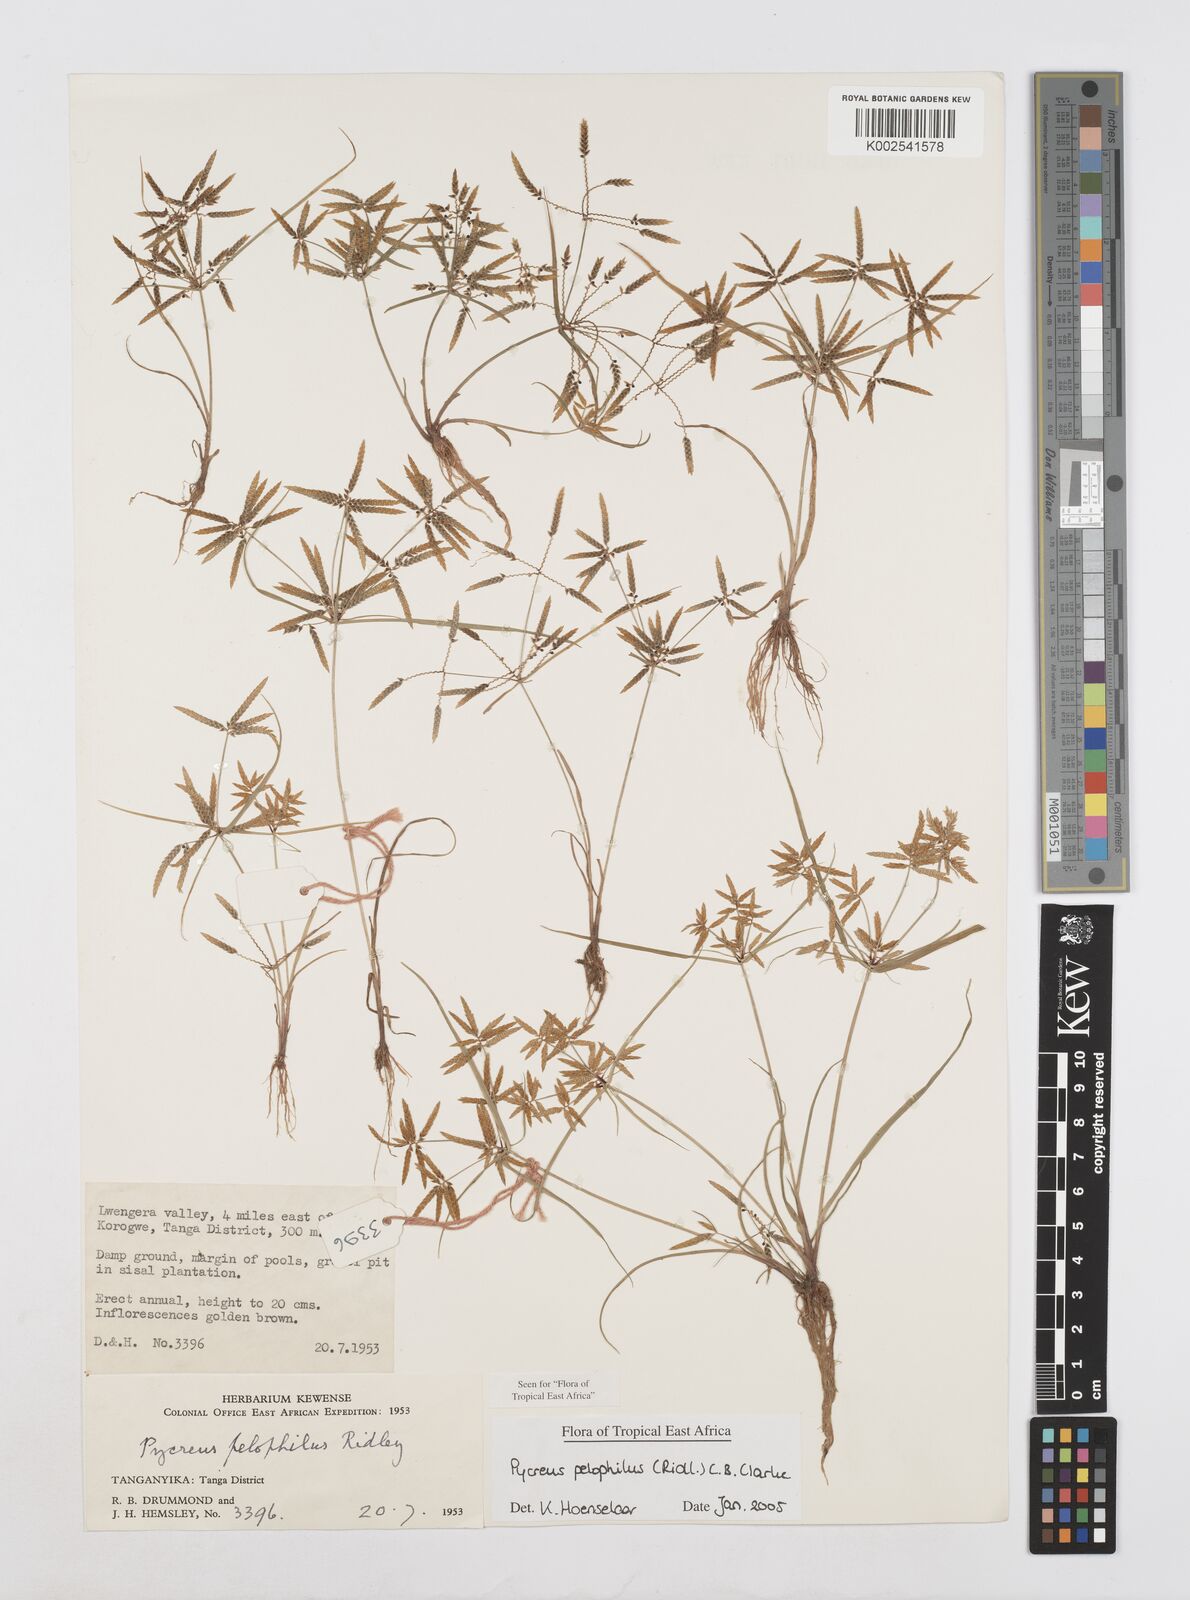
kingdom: Plantae
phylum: Tracheophyta
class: Liliopsida
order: Poales
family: Cyperaceae
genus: Cyperus
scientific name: Cyperus pelophilus
